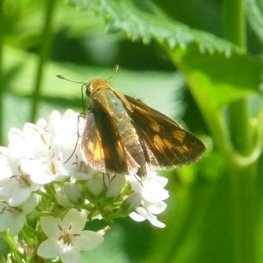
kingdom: Animalia
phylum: Arthropoda
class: Insecta
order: Lepidoptera
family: Hesperiidae
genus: Polites
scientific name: Polites coras
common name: Peck's Skipper
